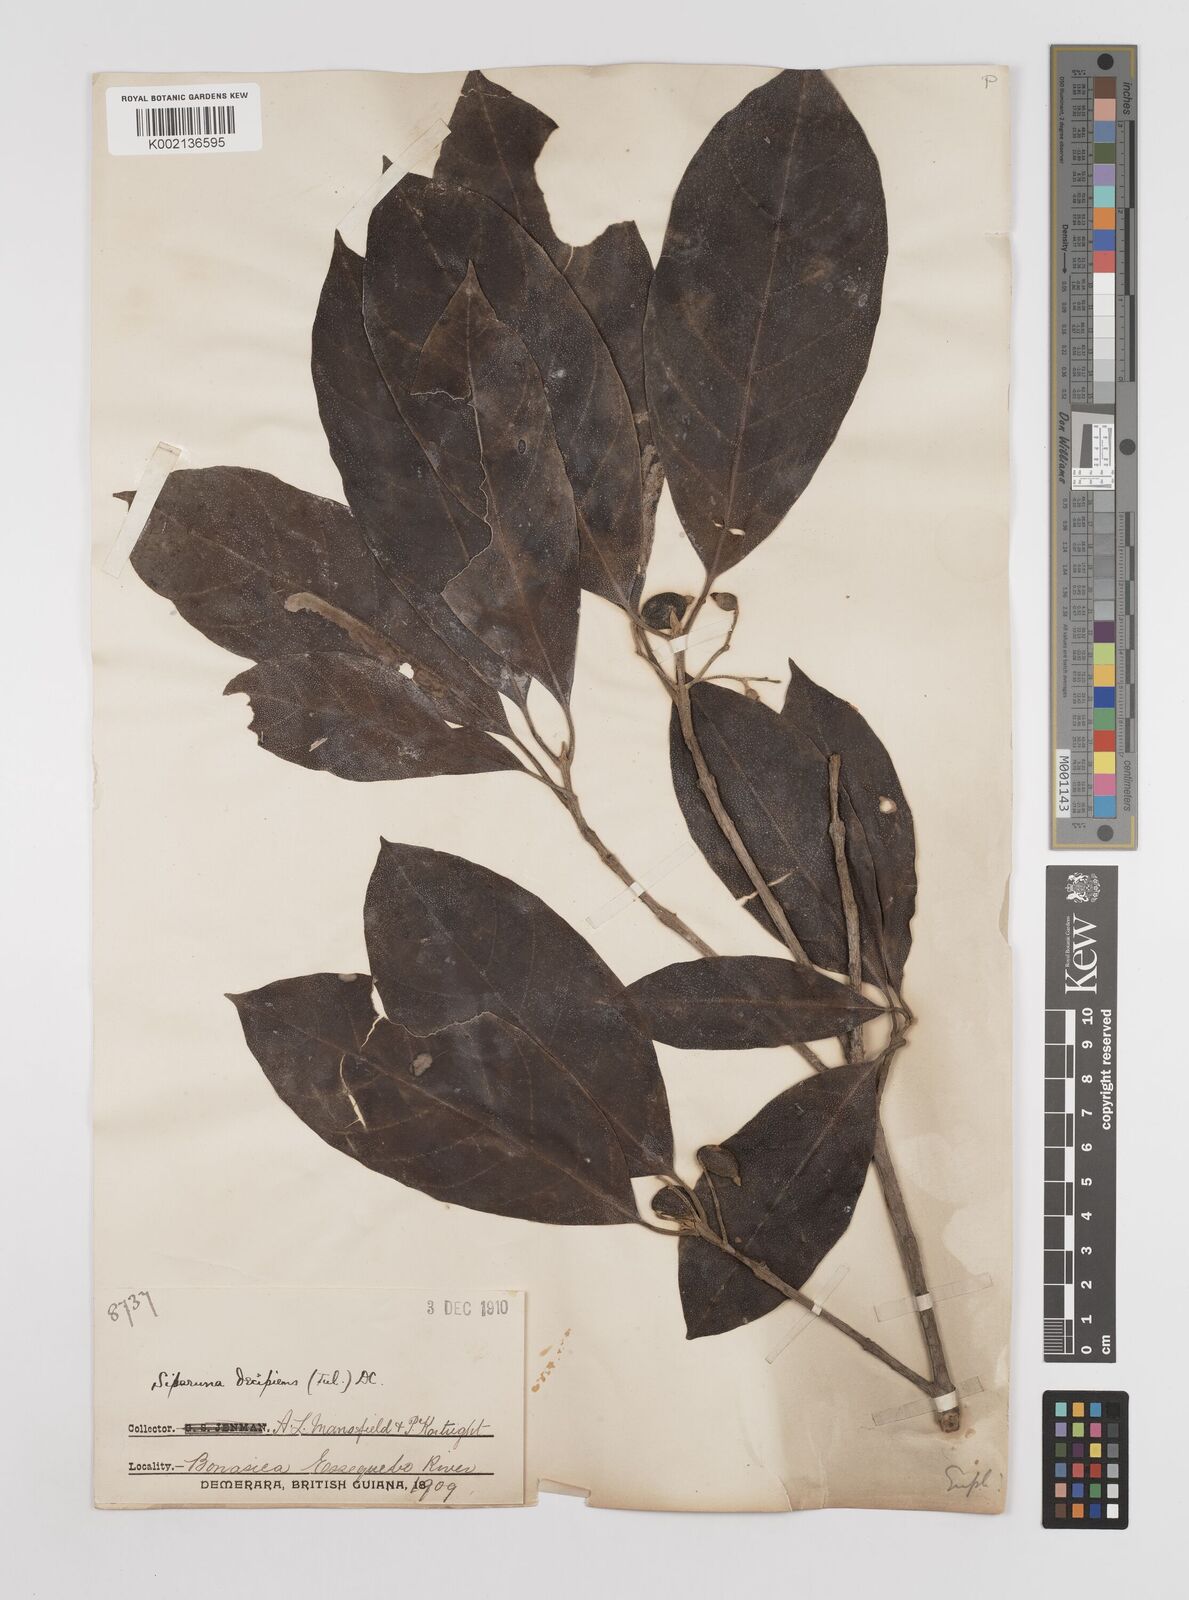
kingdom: Plantae
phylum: Tracheophyta
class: Magnoliopsida
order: Laurales
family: Siparunaceae
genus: Siparuna
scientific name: Siparuna decipiens
